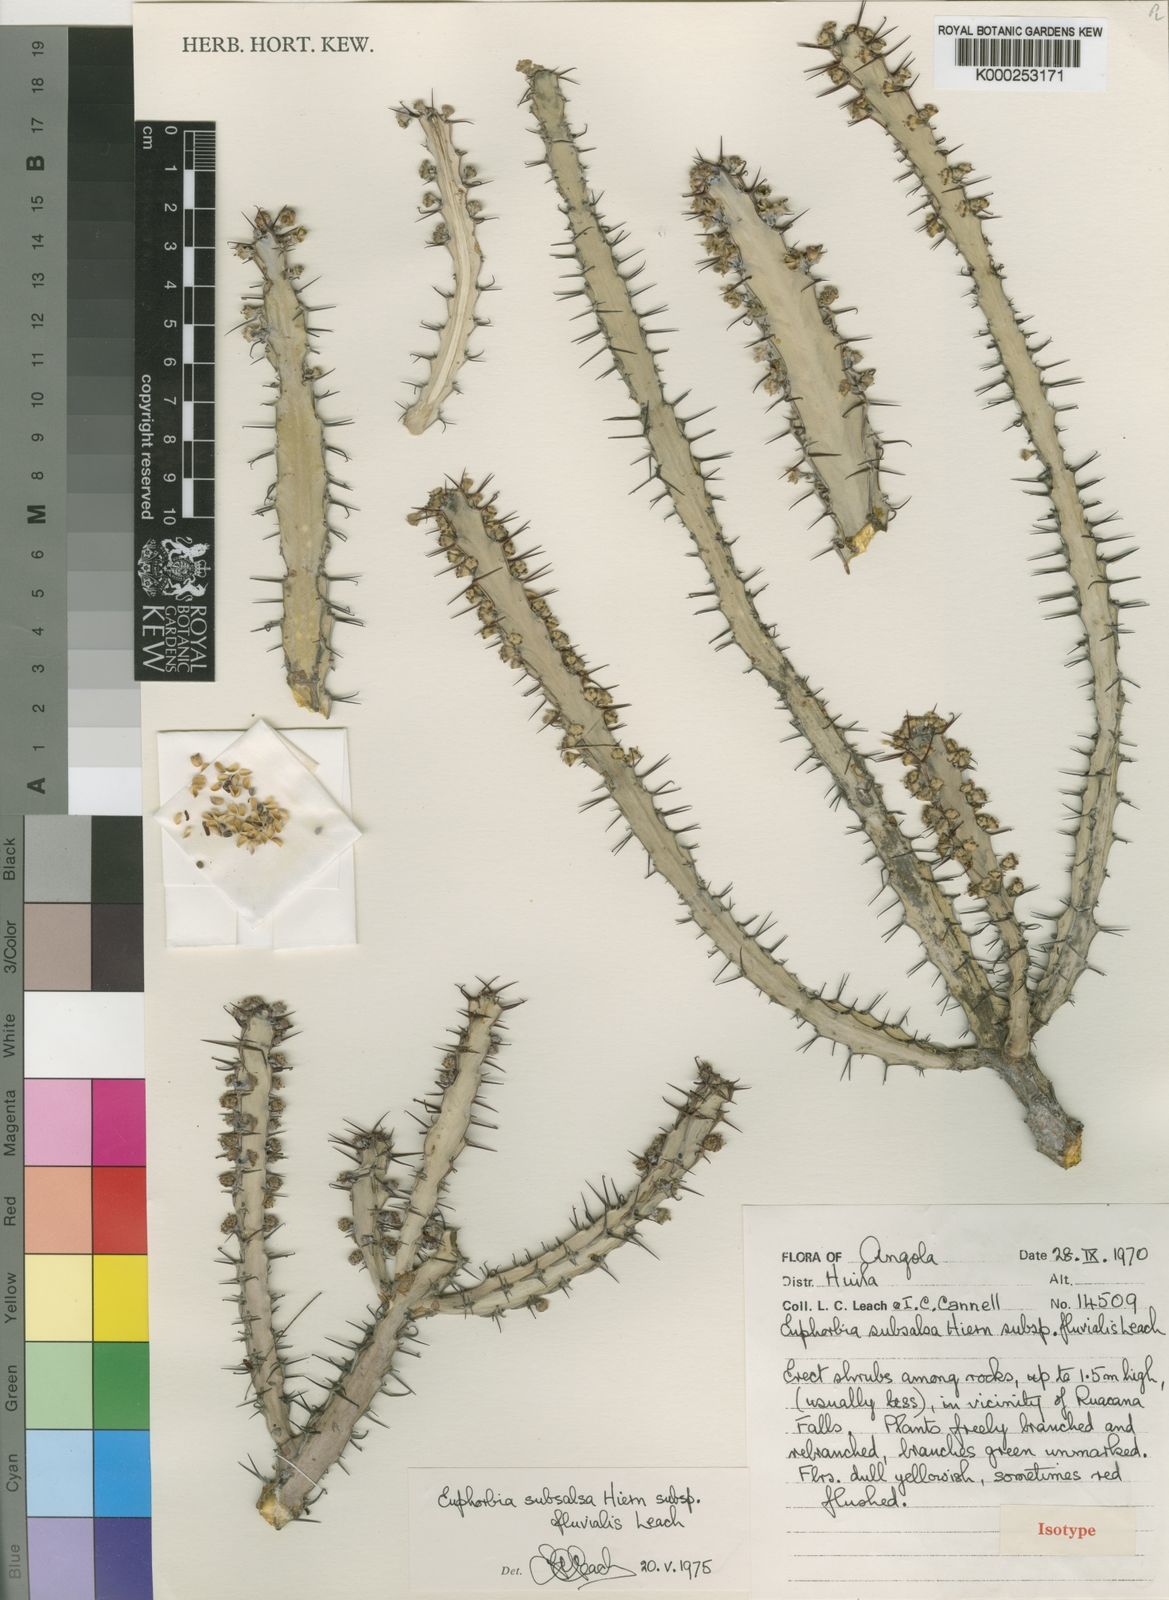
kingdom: Plantae
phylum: Tracheophyta
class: Magnoliopsida
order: Malpighiales
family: Euphorbiaceae
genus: Euphorbia
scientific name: Euphorbia otjipembana
